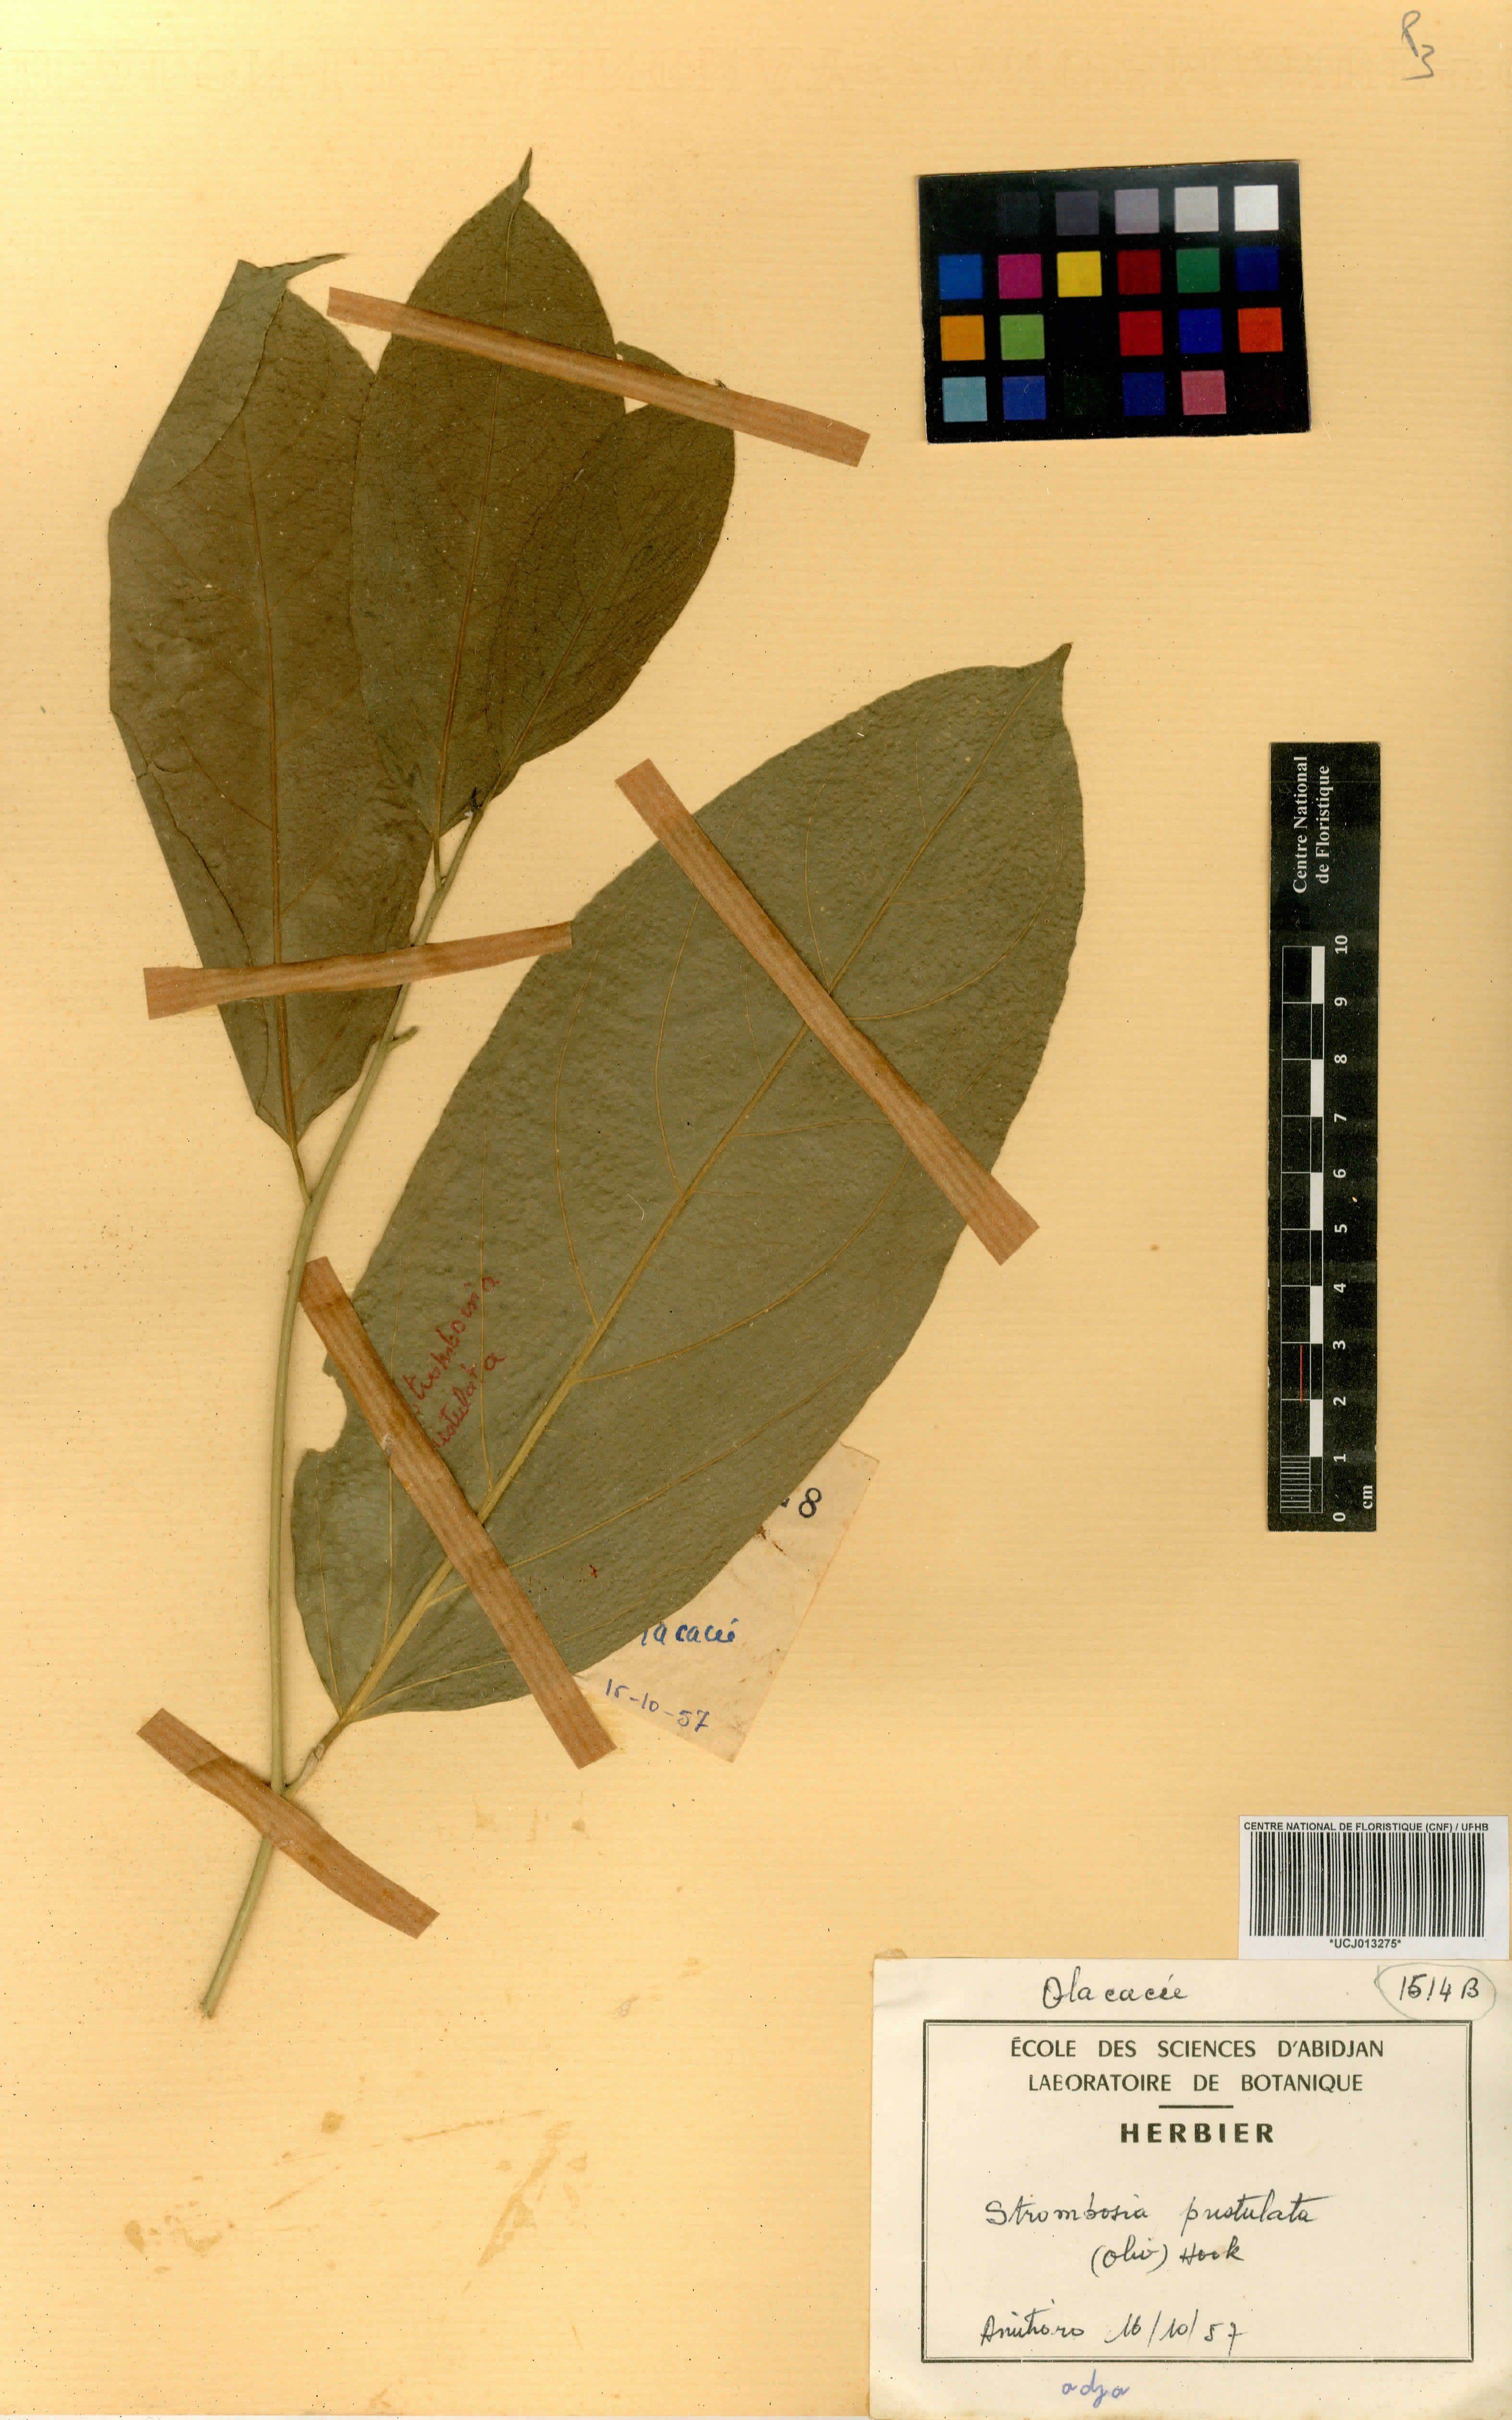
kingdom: Plantae
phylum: Tracheophyta
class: Magnoliopsida
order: Santalales
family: Strombosiaceae
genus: Strombosia
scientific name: Strombosia pustulata
